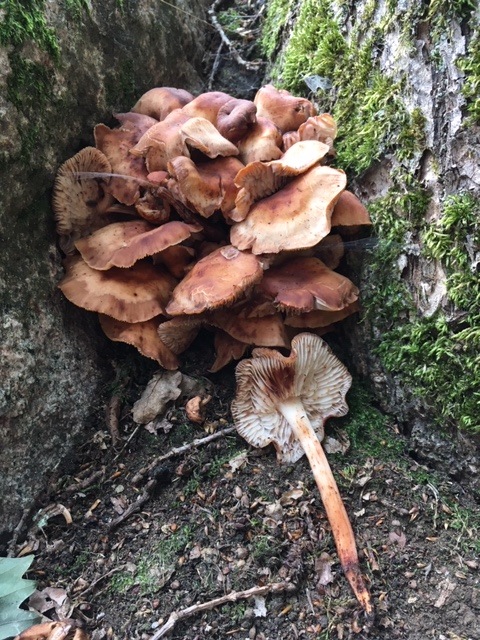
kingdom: Fungi
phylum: Basidiomycota
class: Agaricomycetes
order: Agaricales
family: Omphalotaceae
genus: Gymnopus
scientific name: Gymnopus fusipes
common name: tenstokket fladhat
